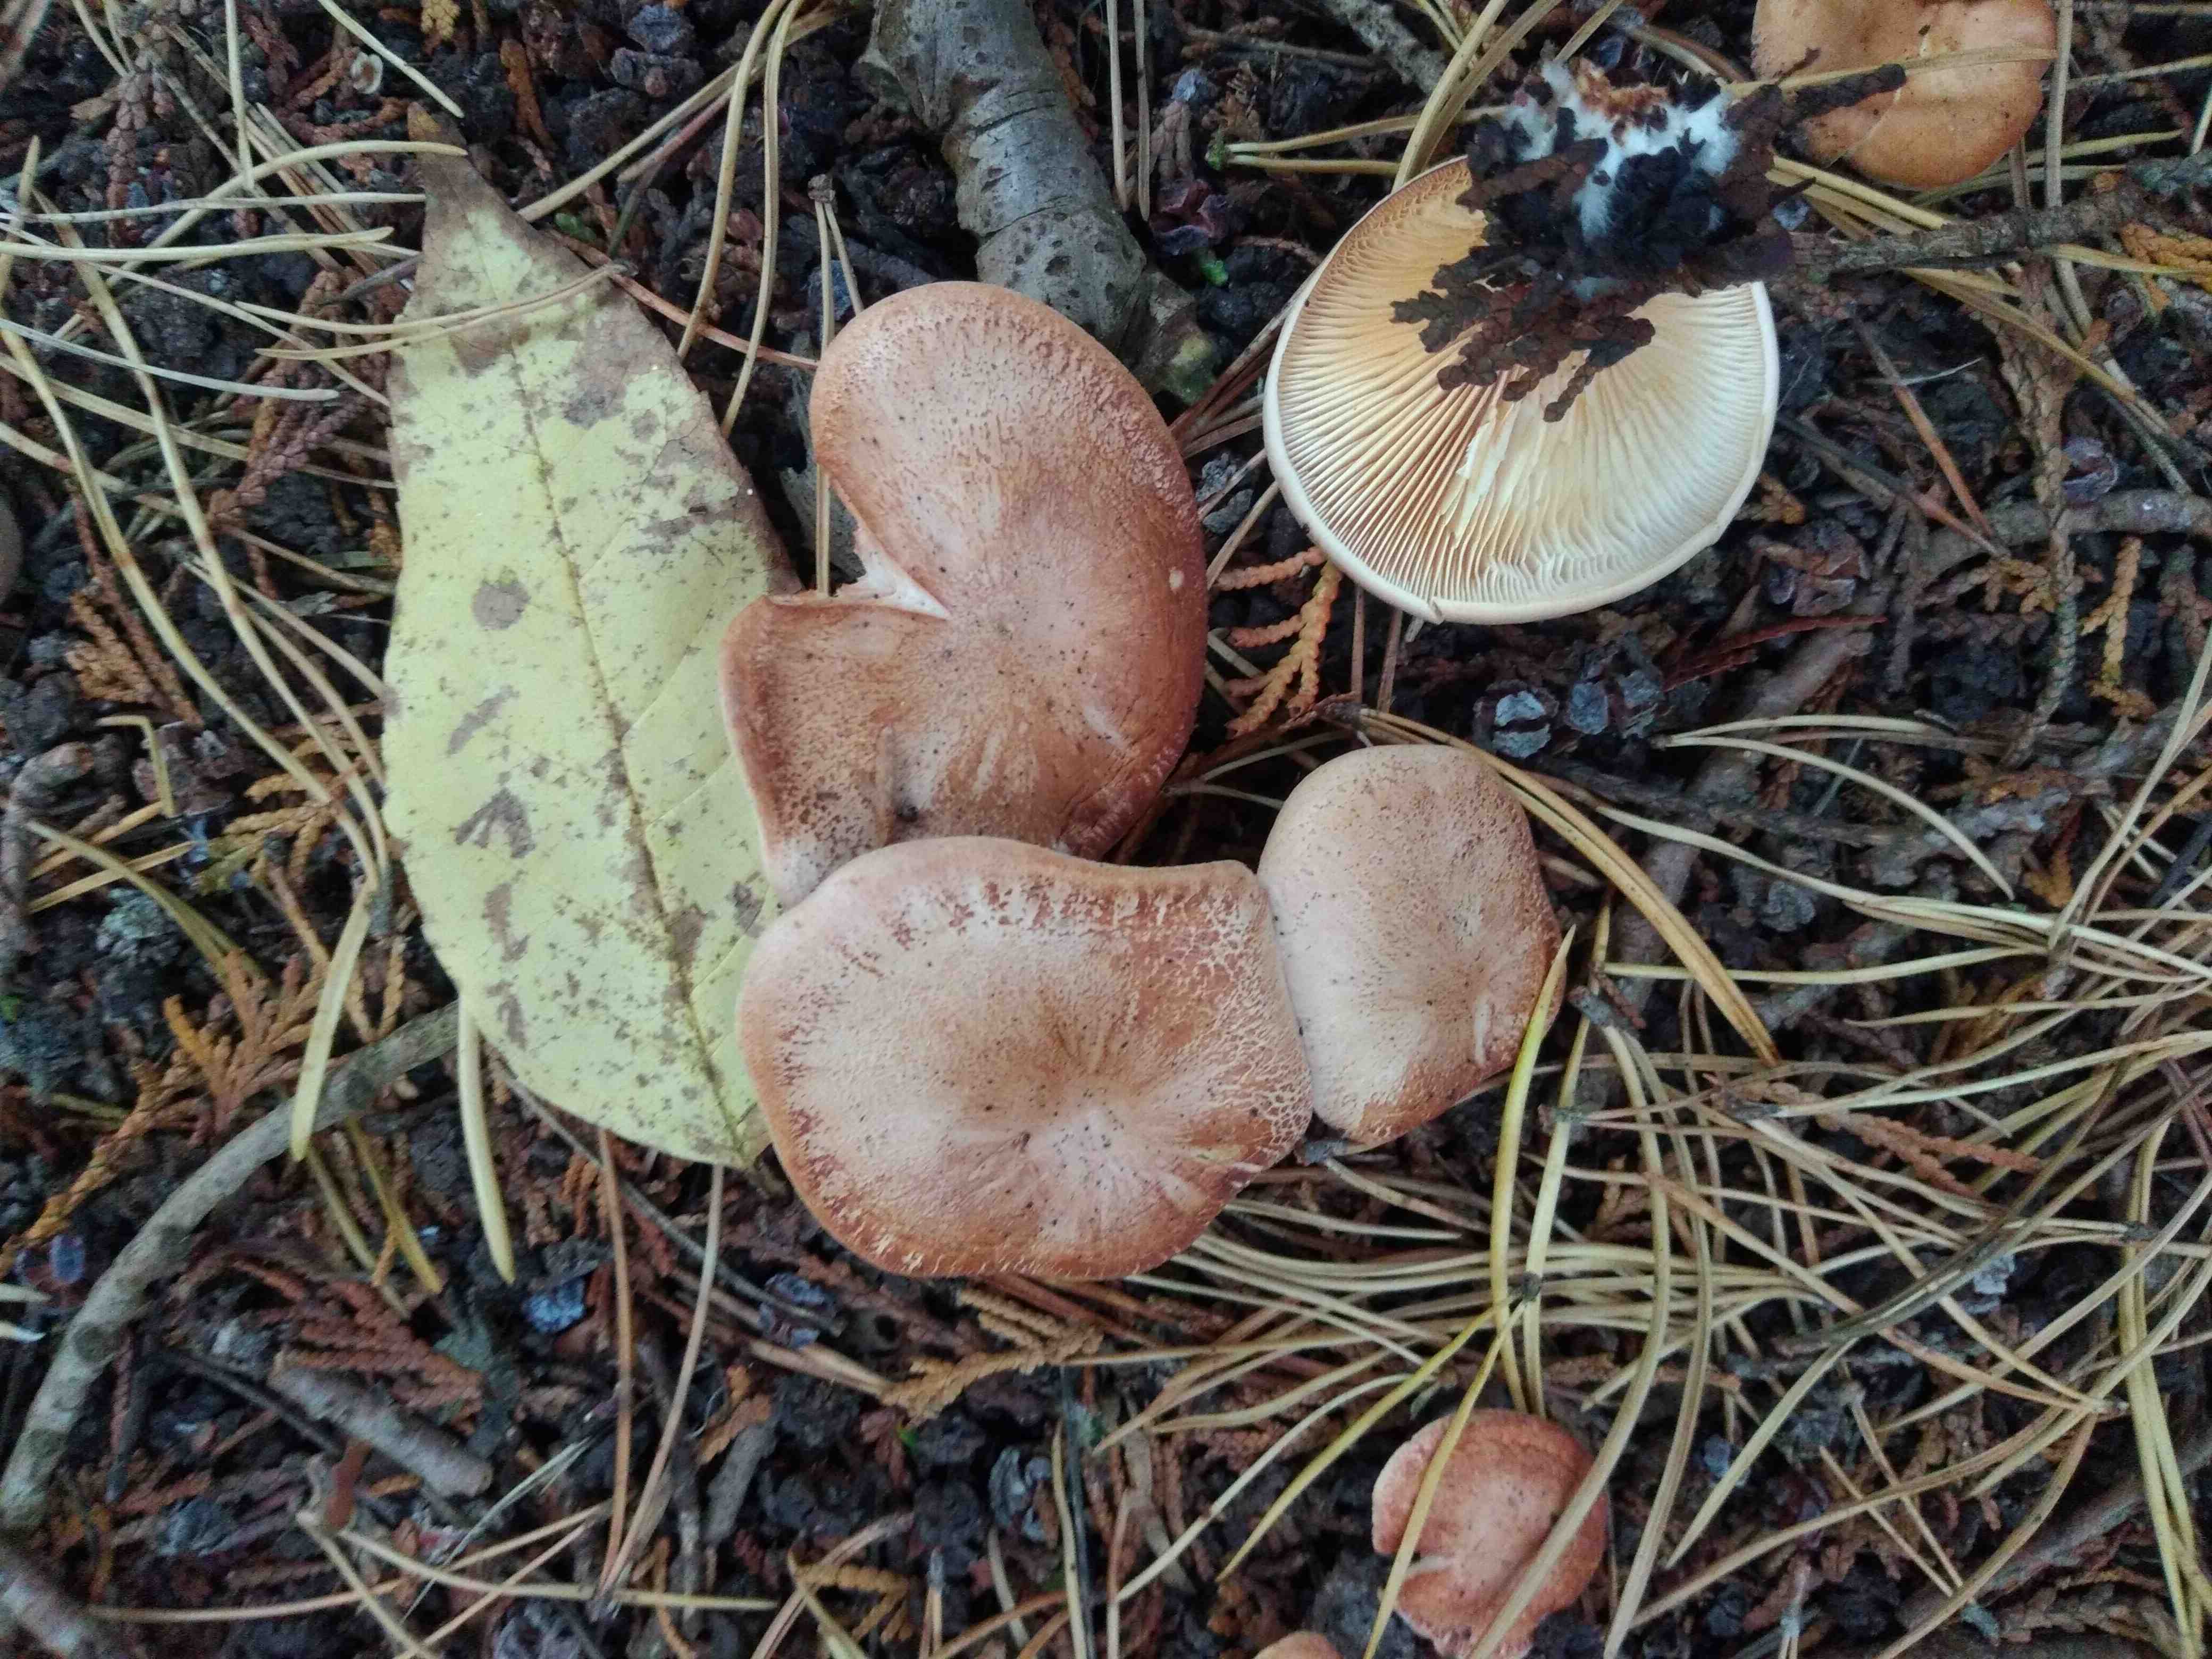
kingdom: Fungi
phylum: Basidiomycota
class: Agaricomycetes
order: Agaricales
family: Tricholomataceae
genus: Paralepista
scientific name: Paralepista gilva
